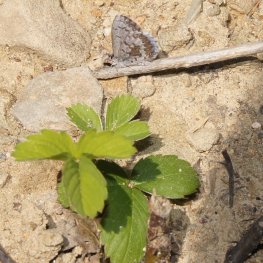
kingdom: Animalia
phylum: Arthropoda
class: Insecta
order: Lepidoptera
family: Lycaenidae
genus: Celastrina
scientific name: Celastrina lucia
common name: Northern Spring Azure
